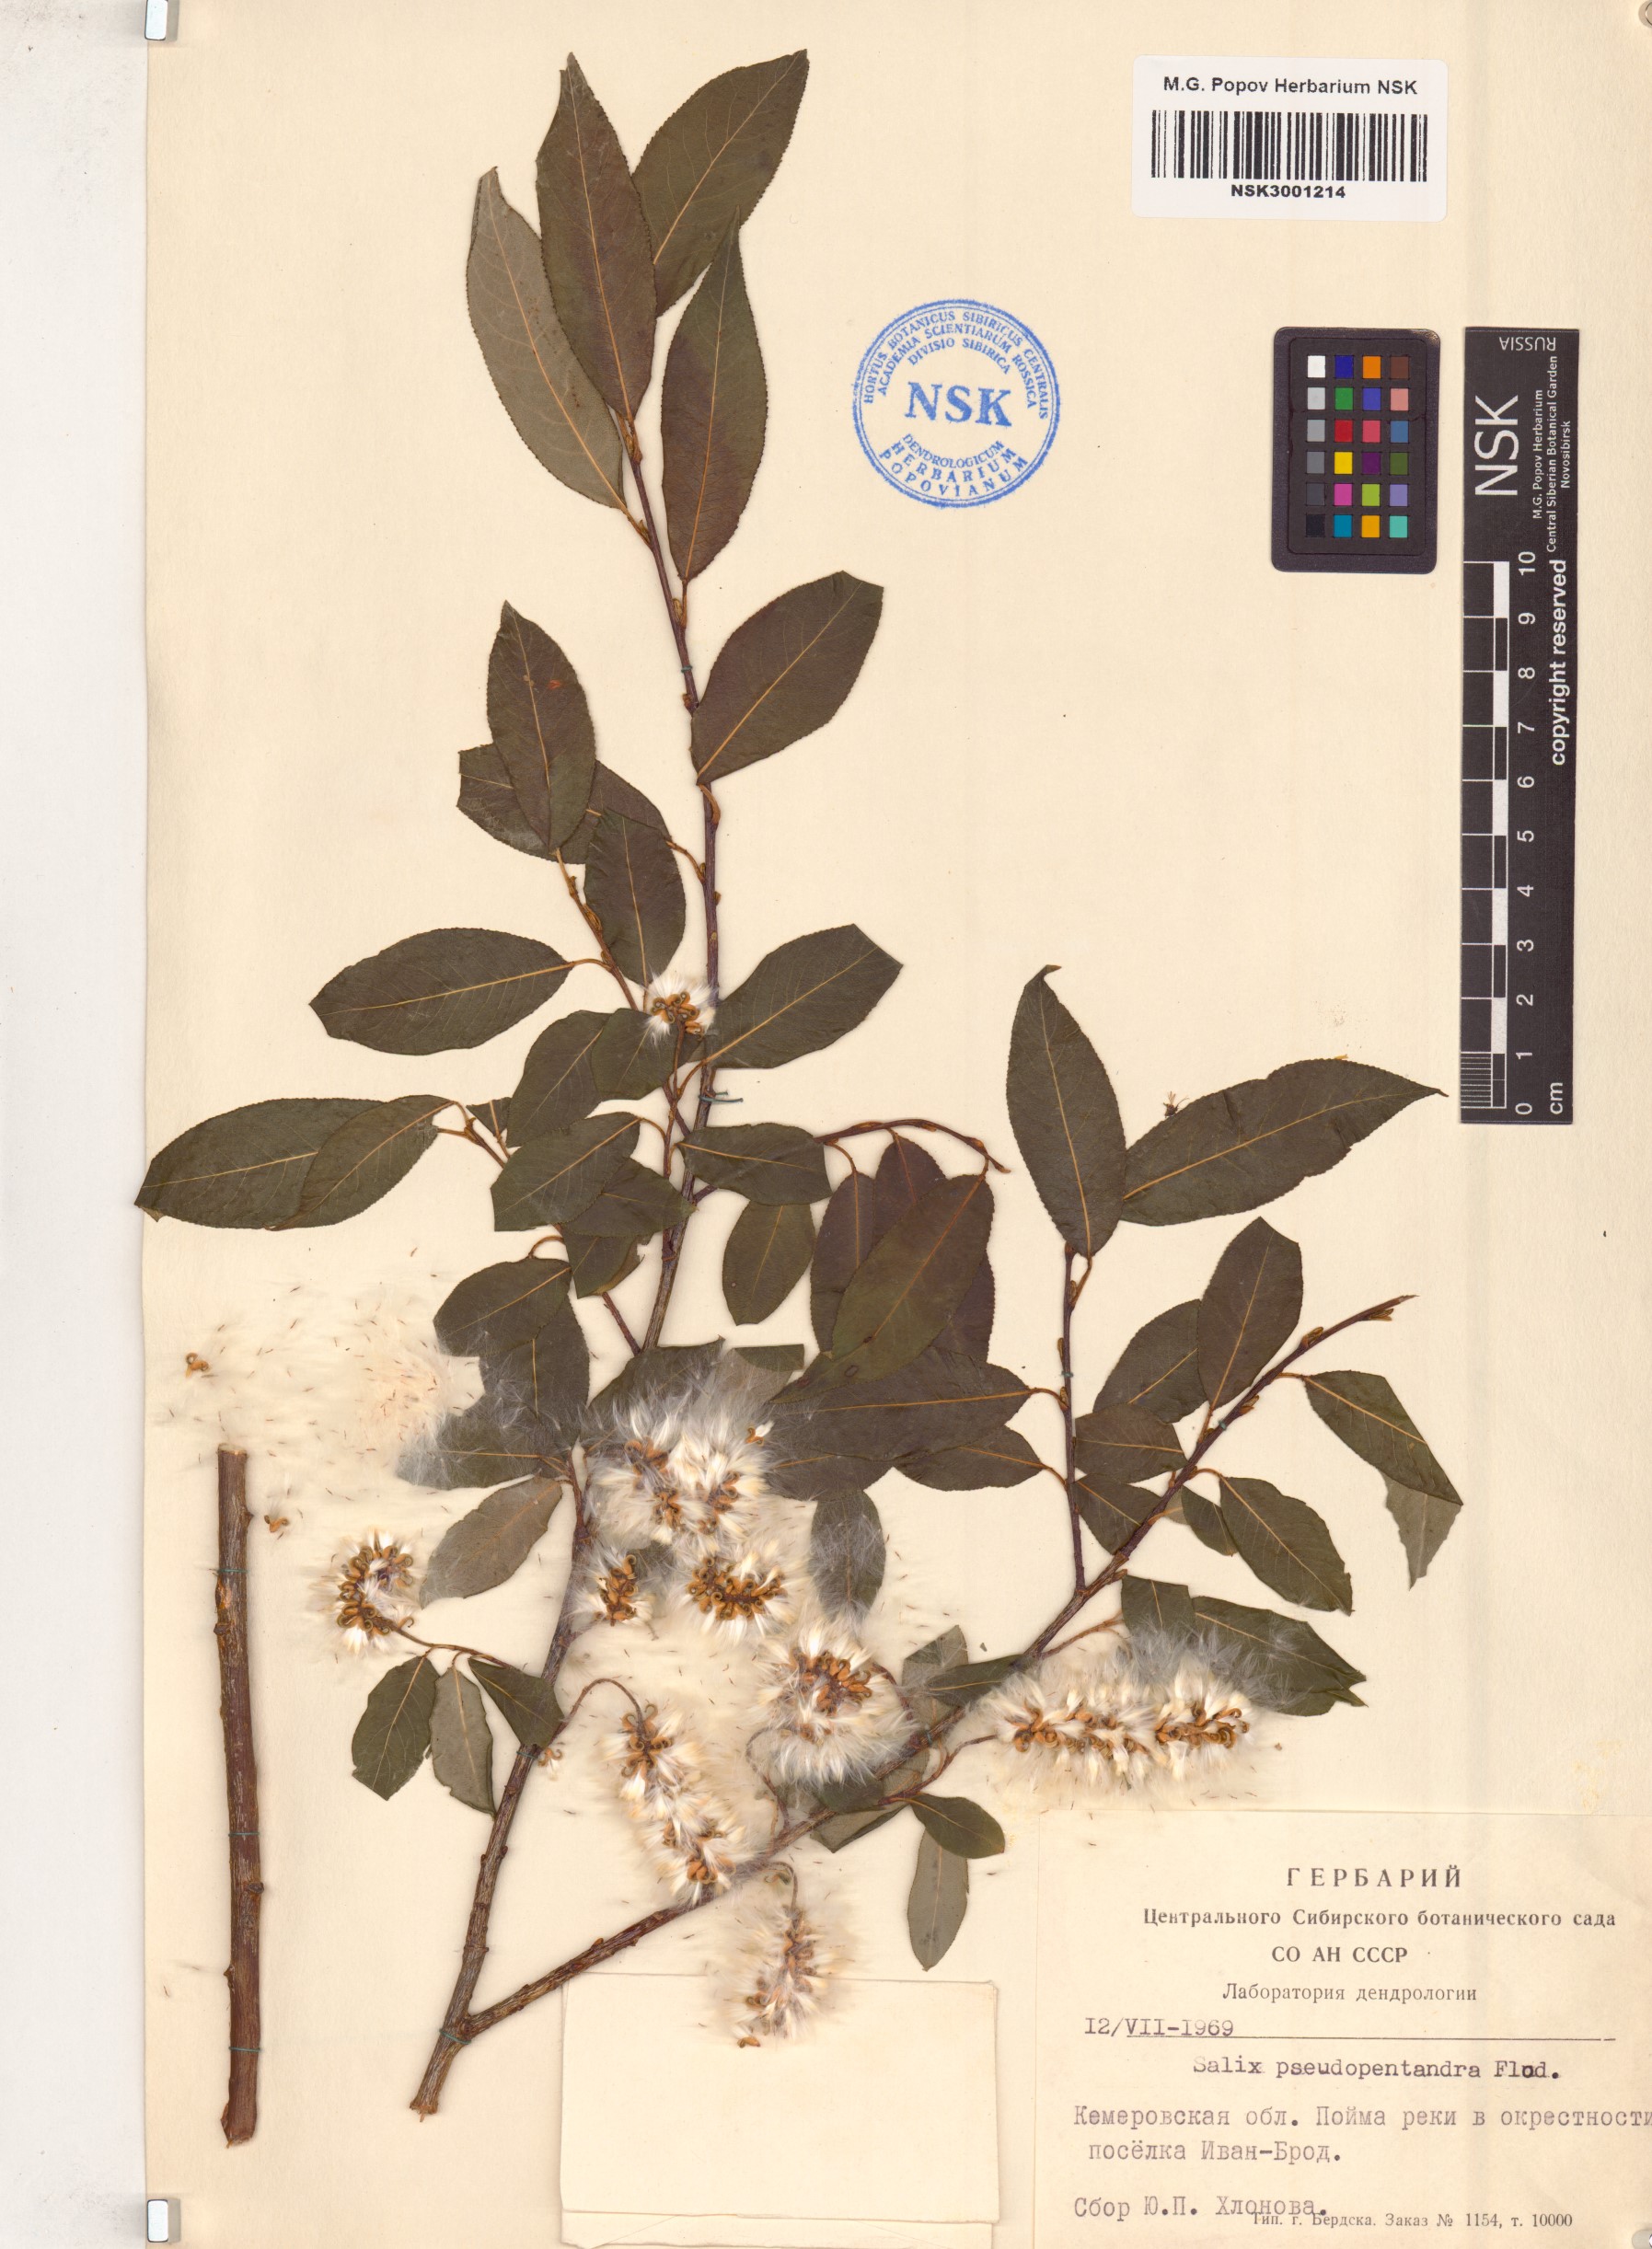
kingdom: Plantae
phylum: Tracheophyta
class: Magnoliopsida
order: Malpighiales
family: Salicaceae
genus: Salix
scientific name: Salix pentandra
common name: Bay willow
